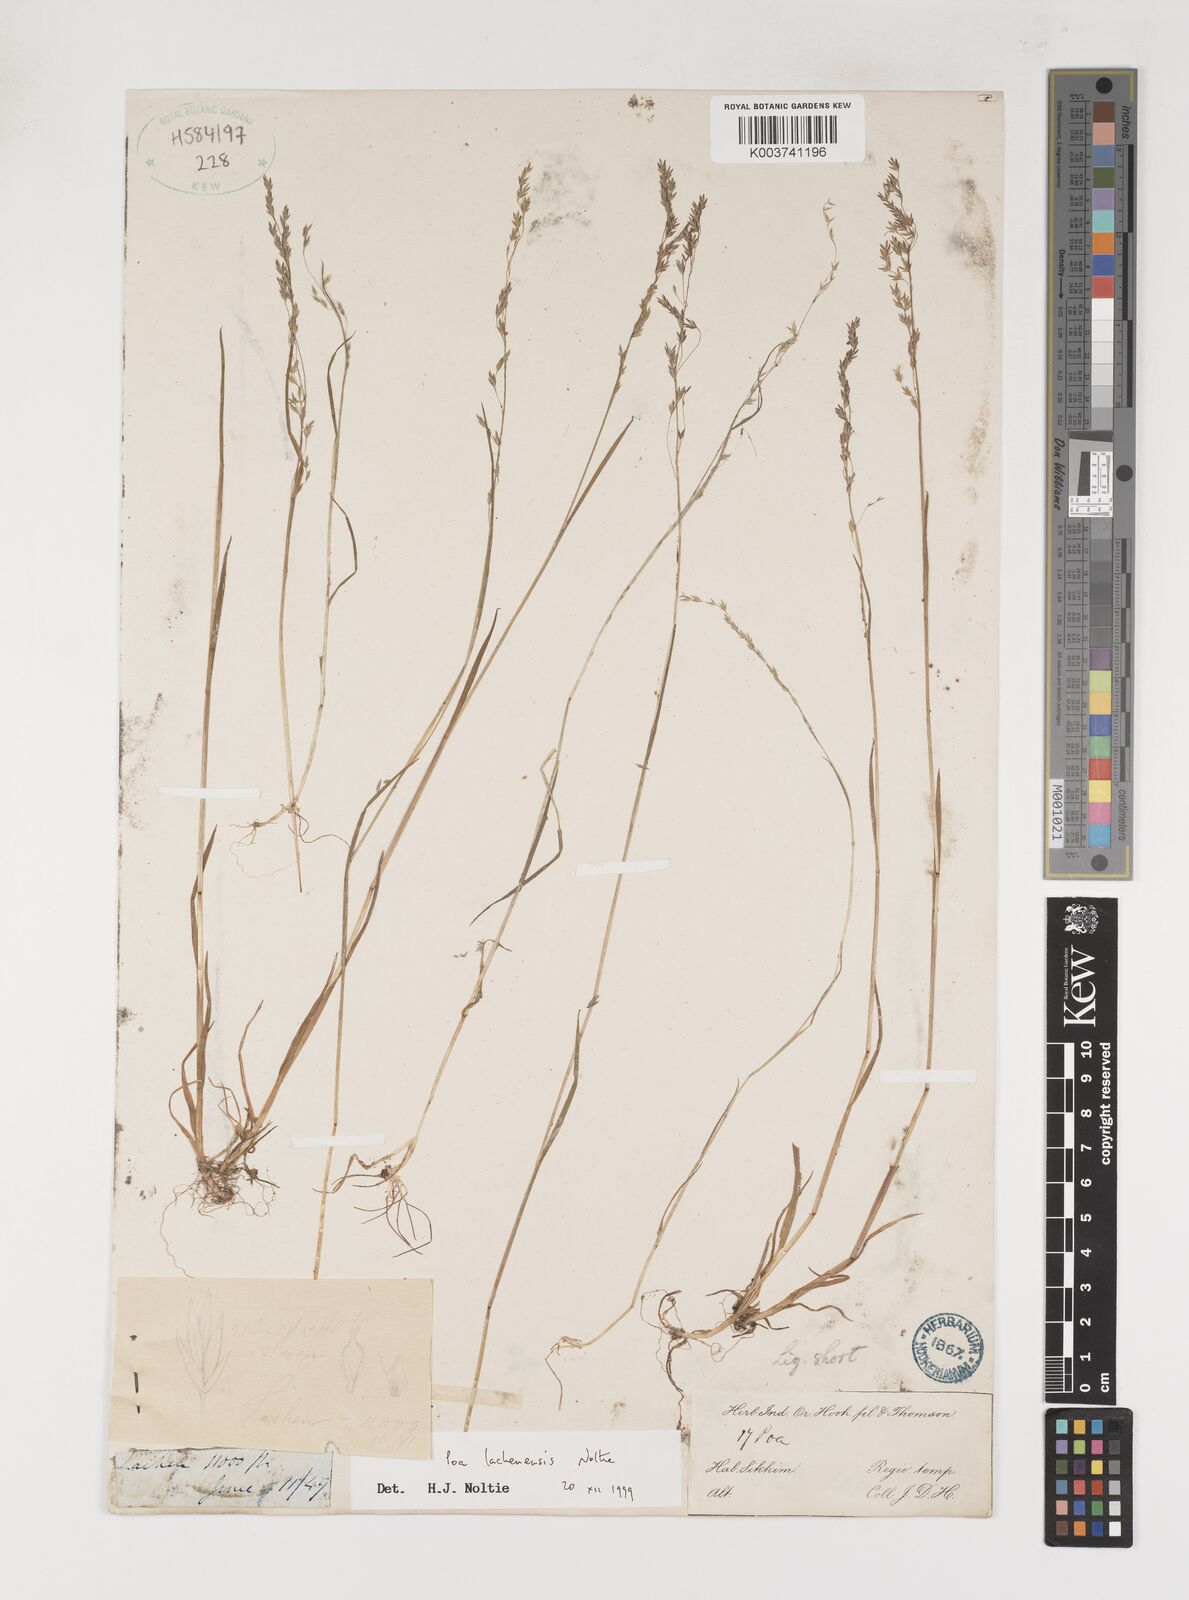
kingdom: Plantae
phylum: Tracheophyta
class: Liliopsida
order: Poales
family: Poaceae
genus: Poa
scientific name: Poa lachenensis
